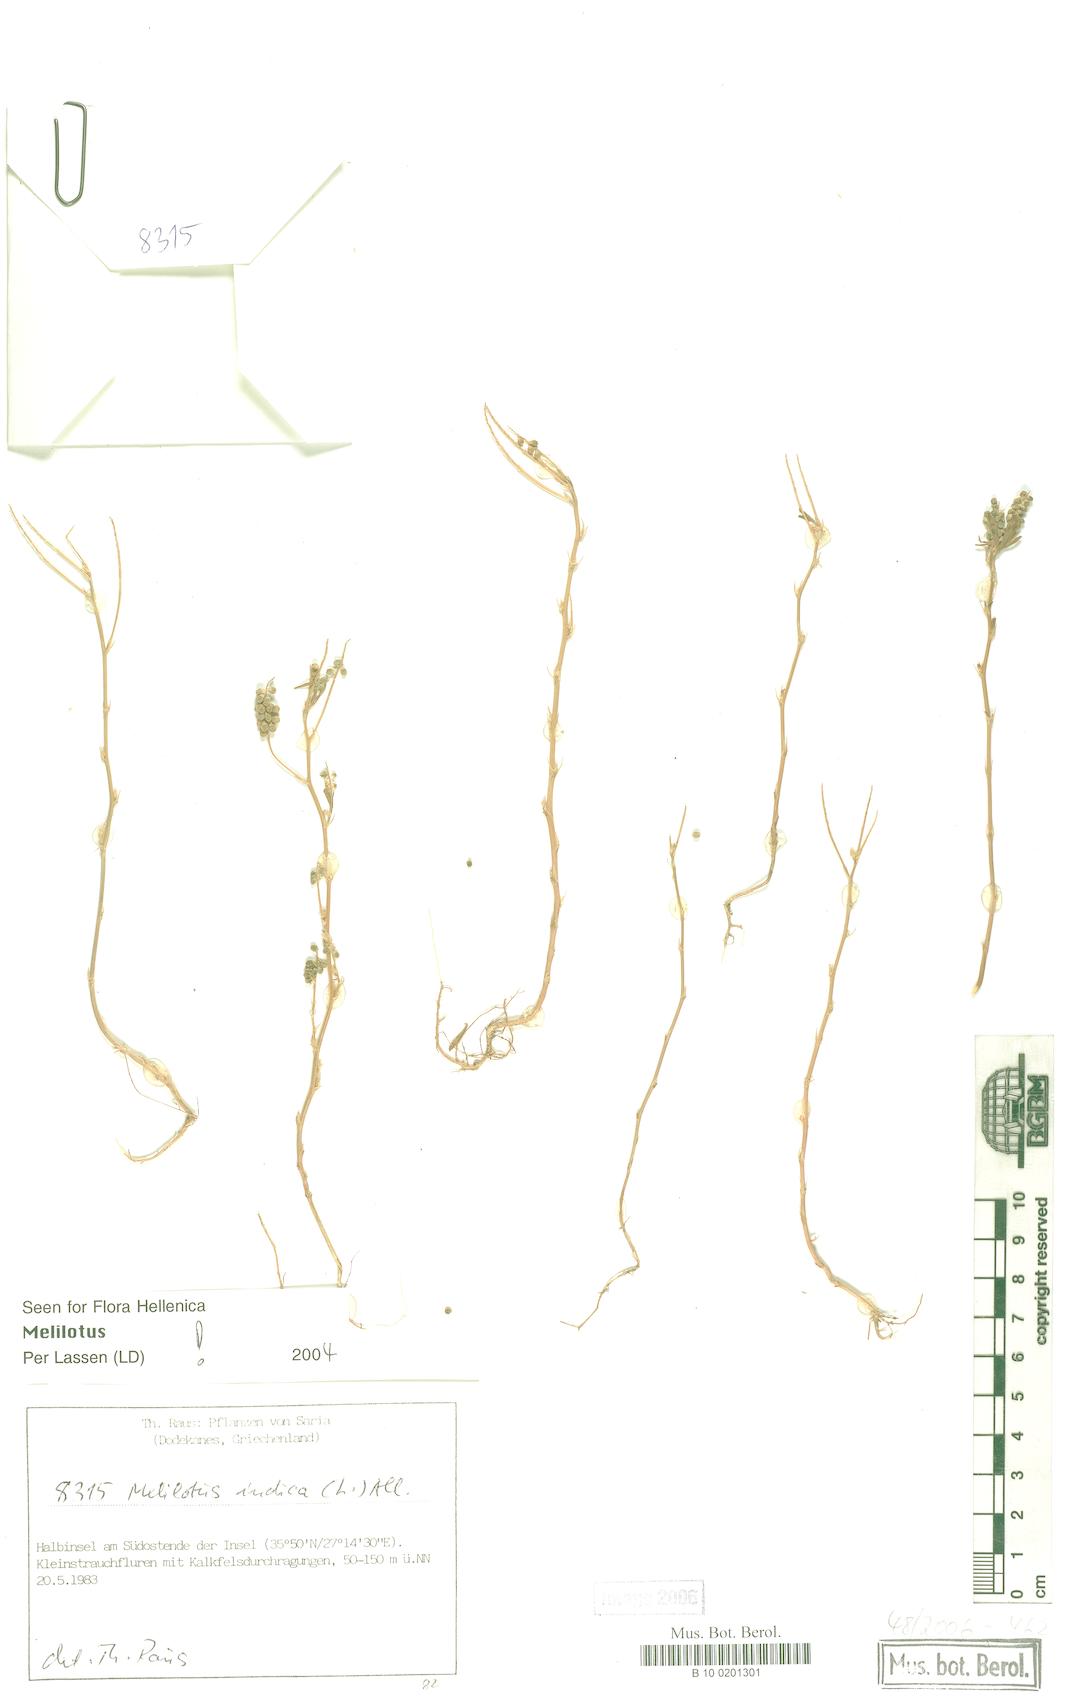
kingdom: Plantae
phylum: Tracheophyta
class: Magnoliopsida
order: Fabales
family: Fabaceae
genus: Melilotus
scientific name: Melilotus indicus
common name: Small melilot
